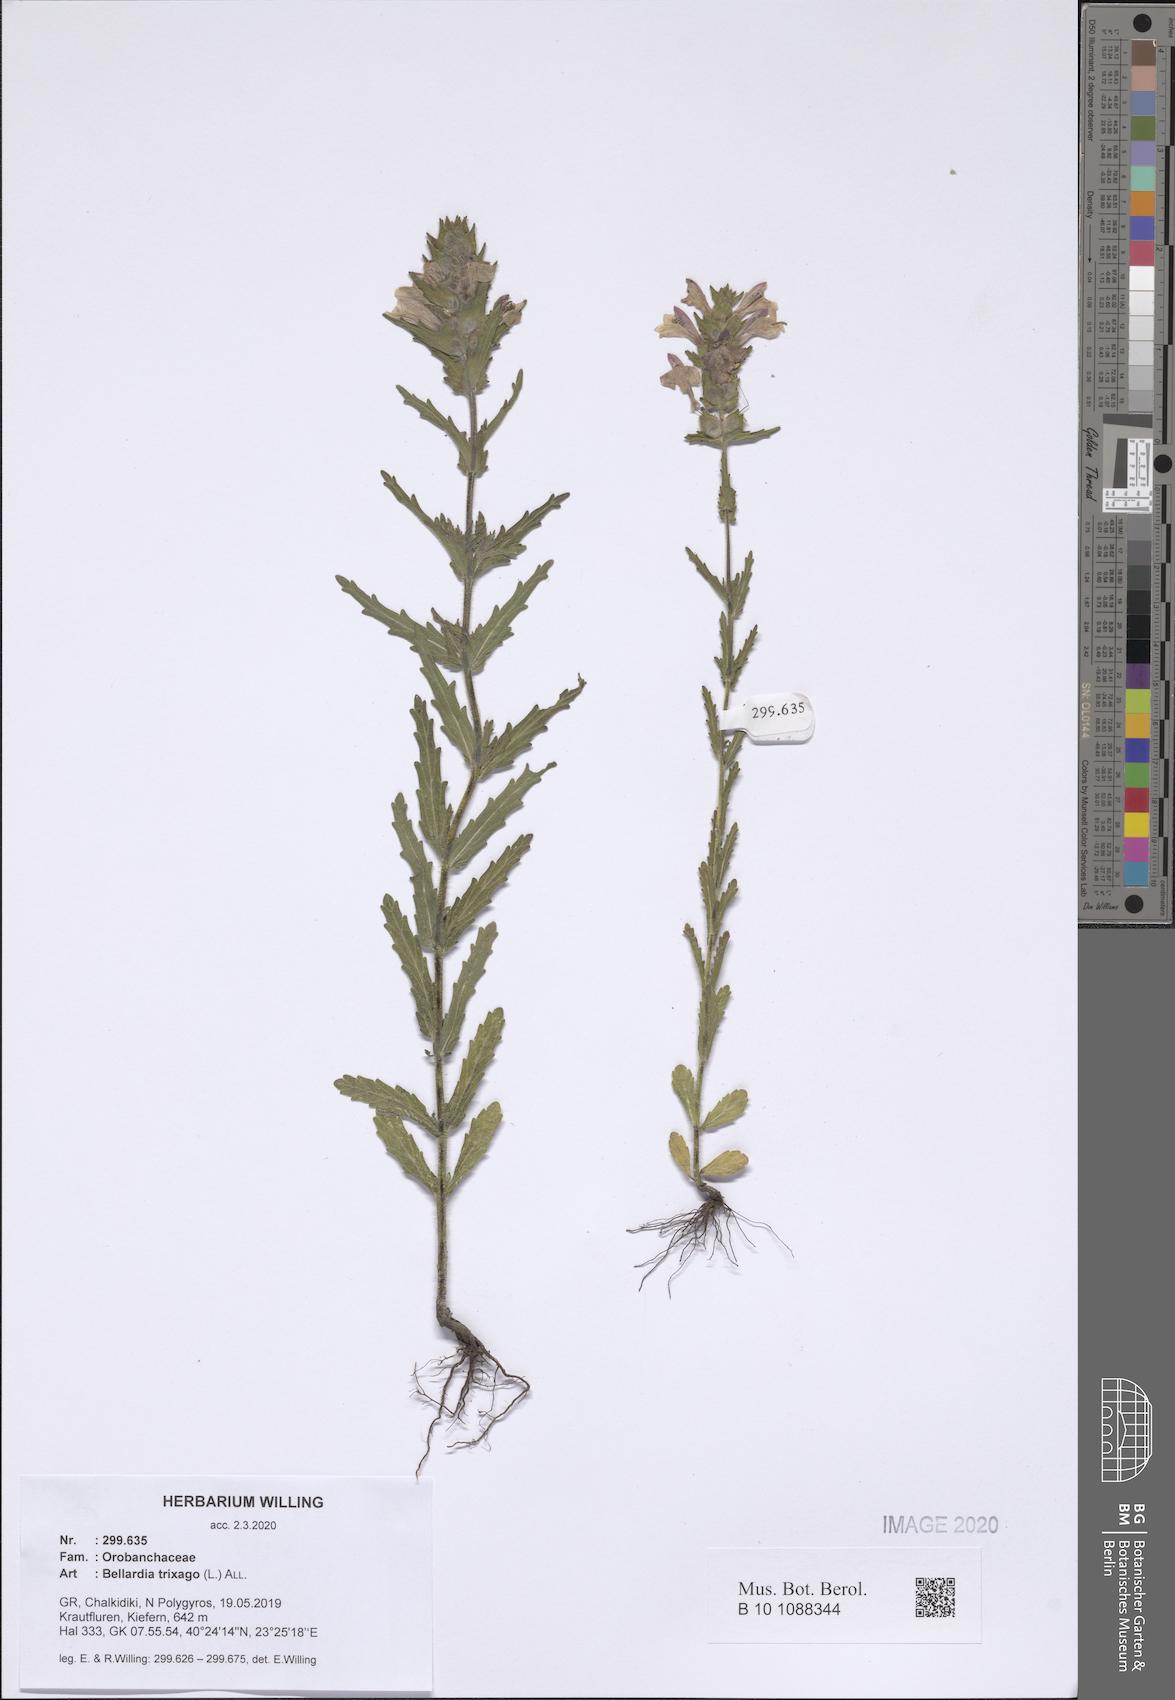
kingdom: Plantae
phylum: Tracheophyta
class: Magnoliopsida
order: Lamiales
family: Orobanchaceae
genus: Bellardia
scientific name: Bellardia trixago
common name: Mediterranean lineseed
